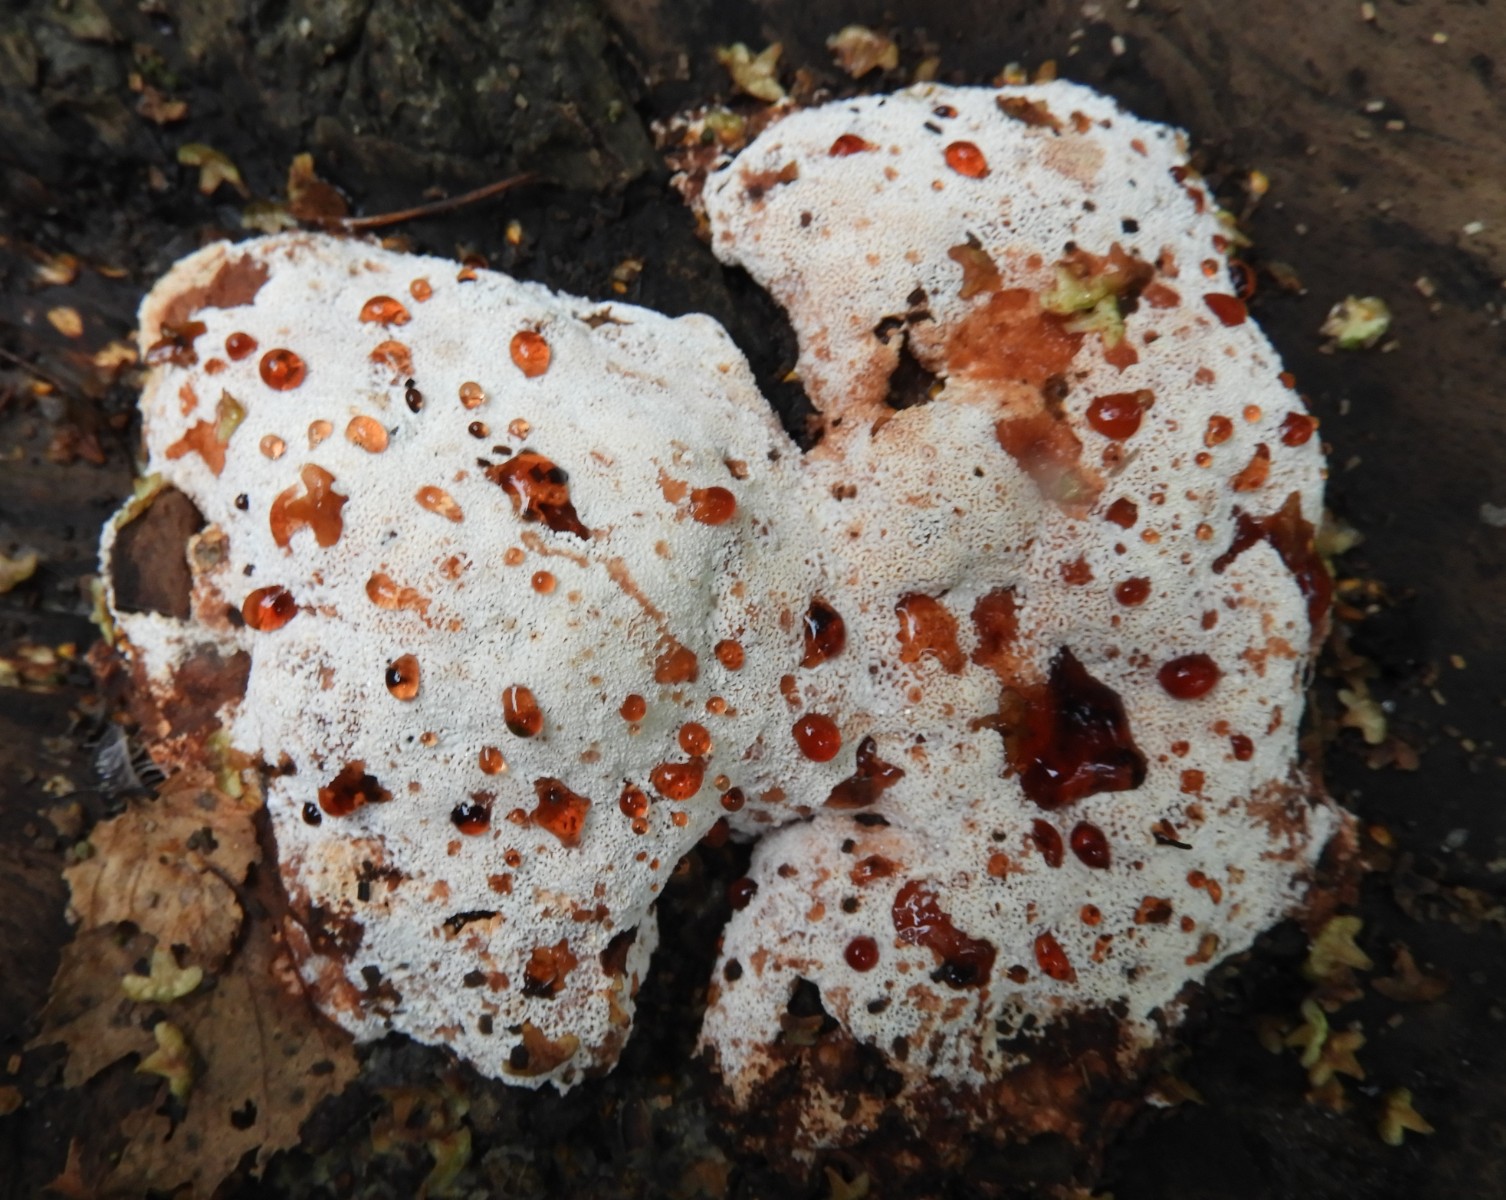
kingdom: Fungi
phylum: Basidiomycota
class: Agaricomycetes
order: Polyporales
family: Podoscyphaceae
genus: Abortiporus
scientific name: Abortiporus biennis
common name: rødmende pjalteporesvamp
